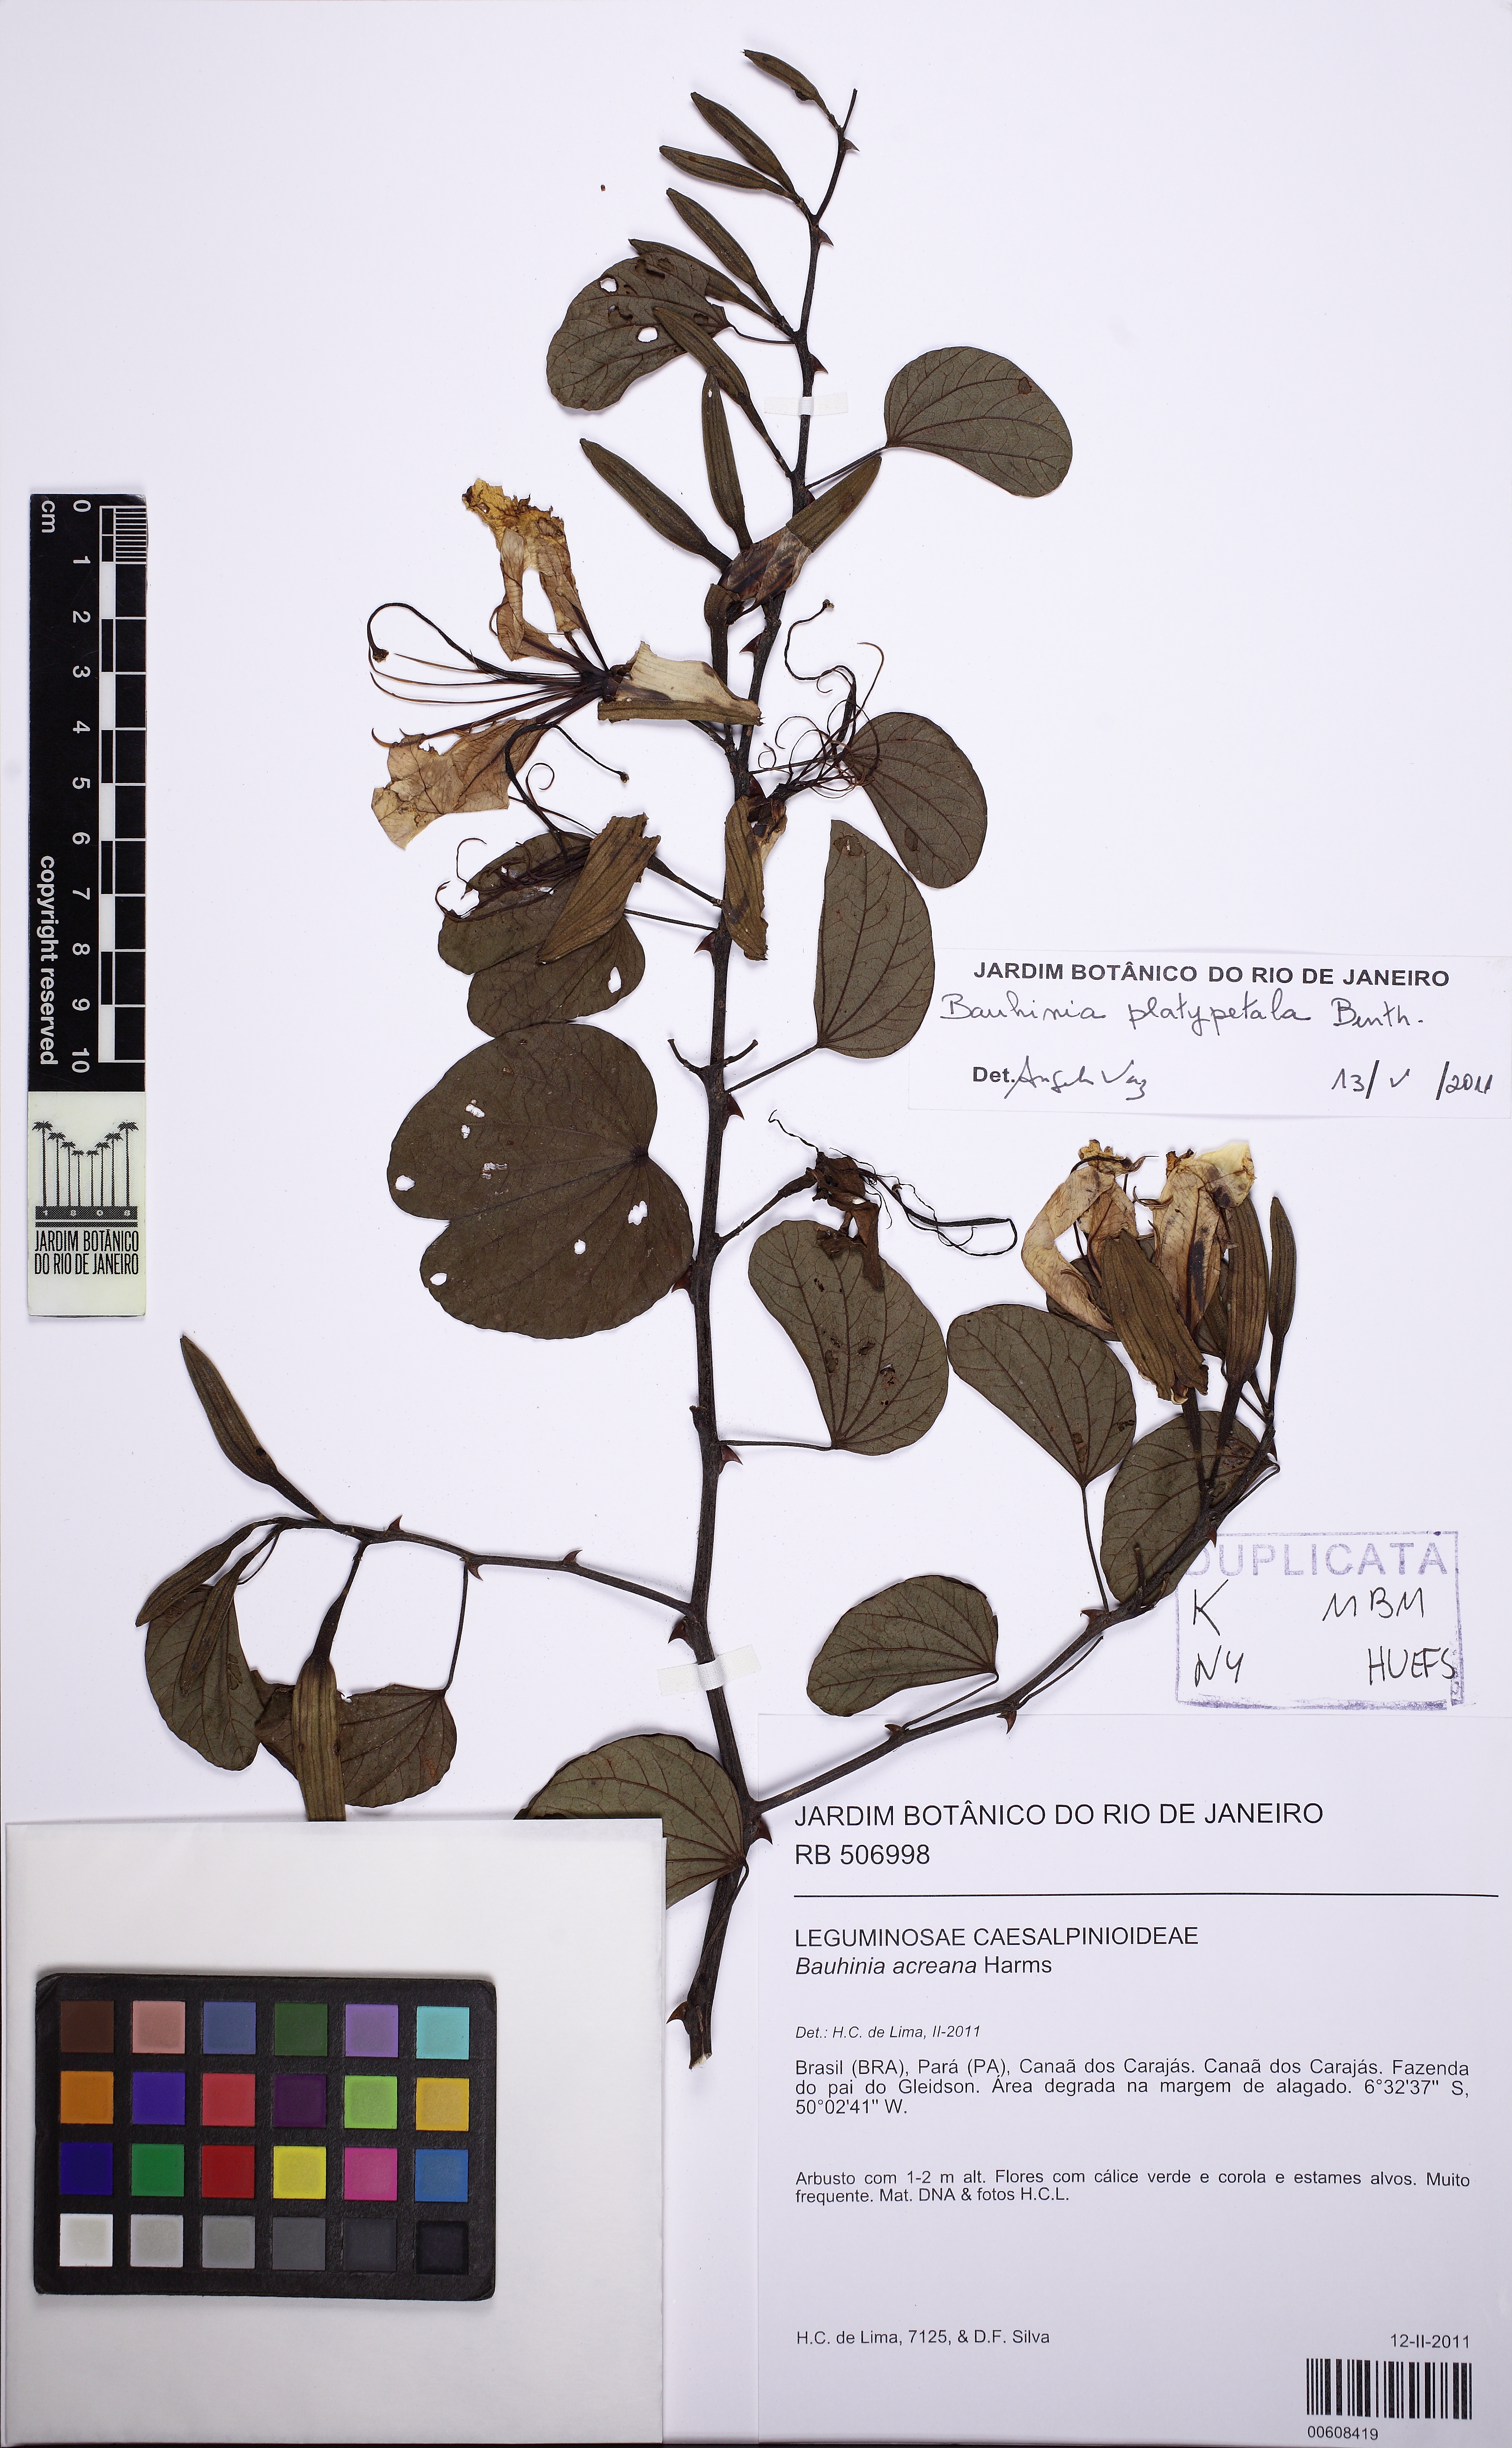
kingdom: Plantae
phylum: Tracheophyta
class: Magnoliopsida
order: Fabales
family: Fabaceae
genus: Bauhinia
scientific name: Bauhinia platypetala
